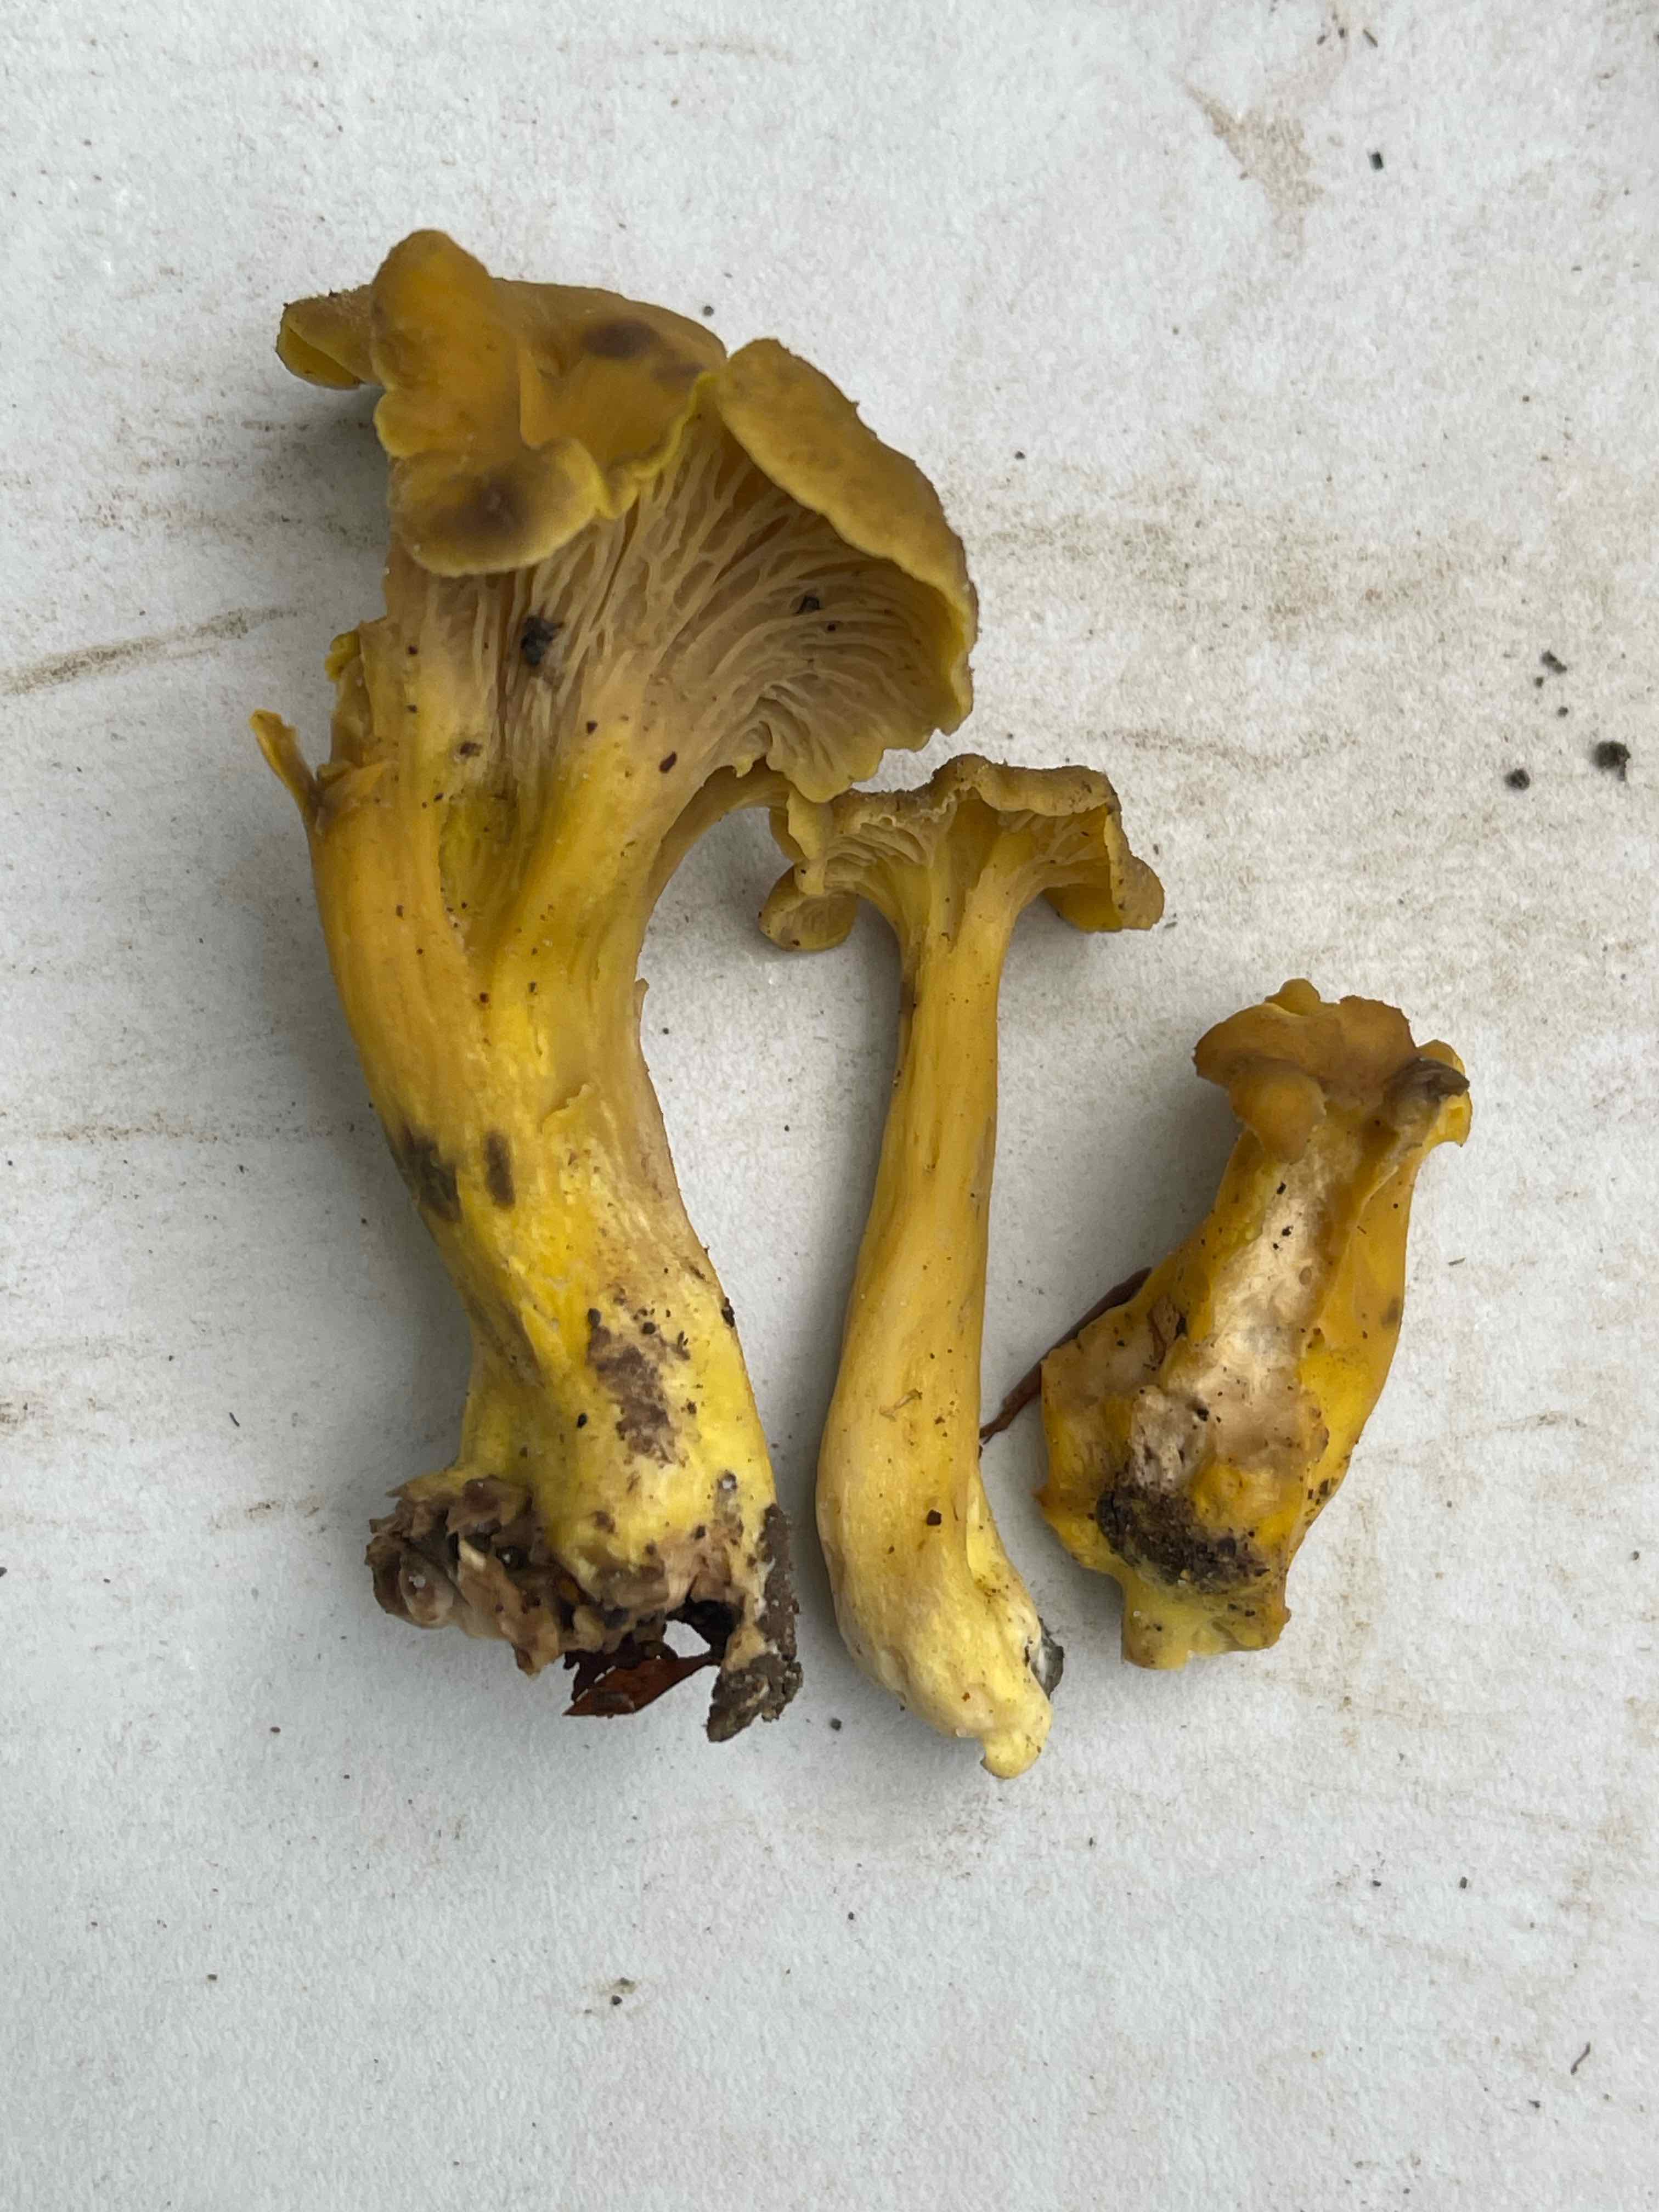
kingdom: Fungi
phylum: Basidiomycota
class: Agaricomycetes
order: Cantharellales
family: Hydnaceae
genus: Cantharellus
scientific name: Cantharellus melanoxeros
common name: sværtende kantarel
